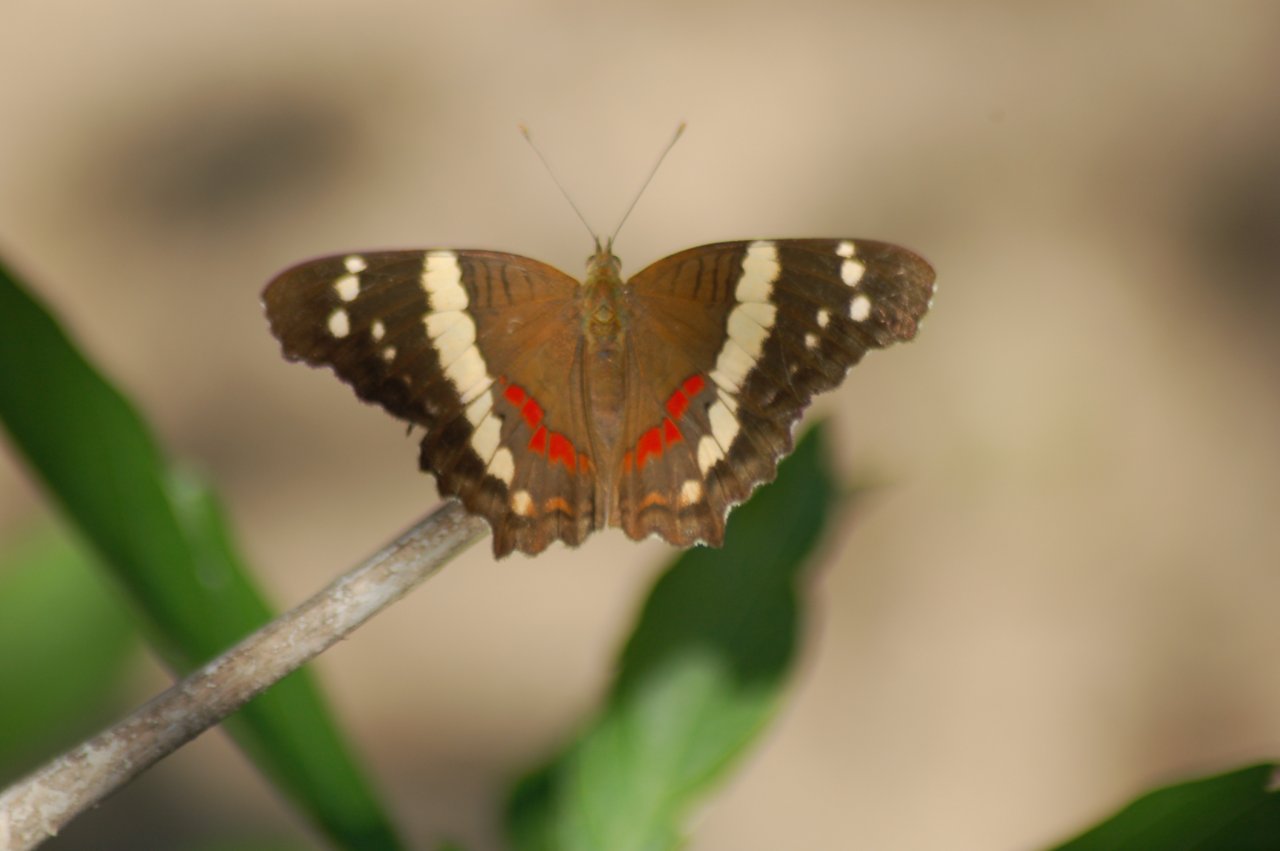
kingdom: Animalia
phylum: Arthropoda
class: Insecta
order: Lepidoptera
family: Nymphalidae
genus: Anartia
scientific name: Anartia fatima
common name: Banded Peacock
